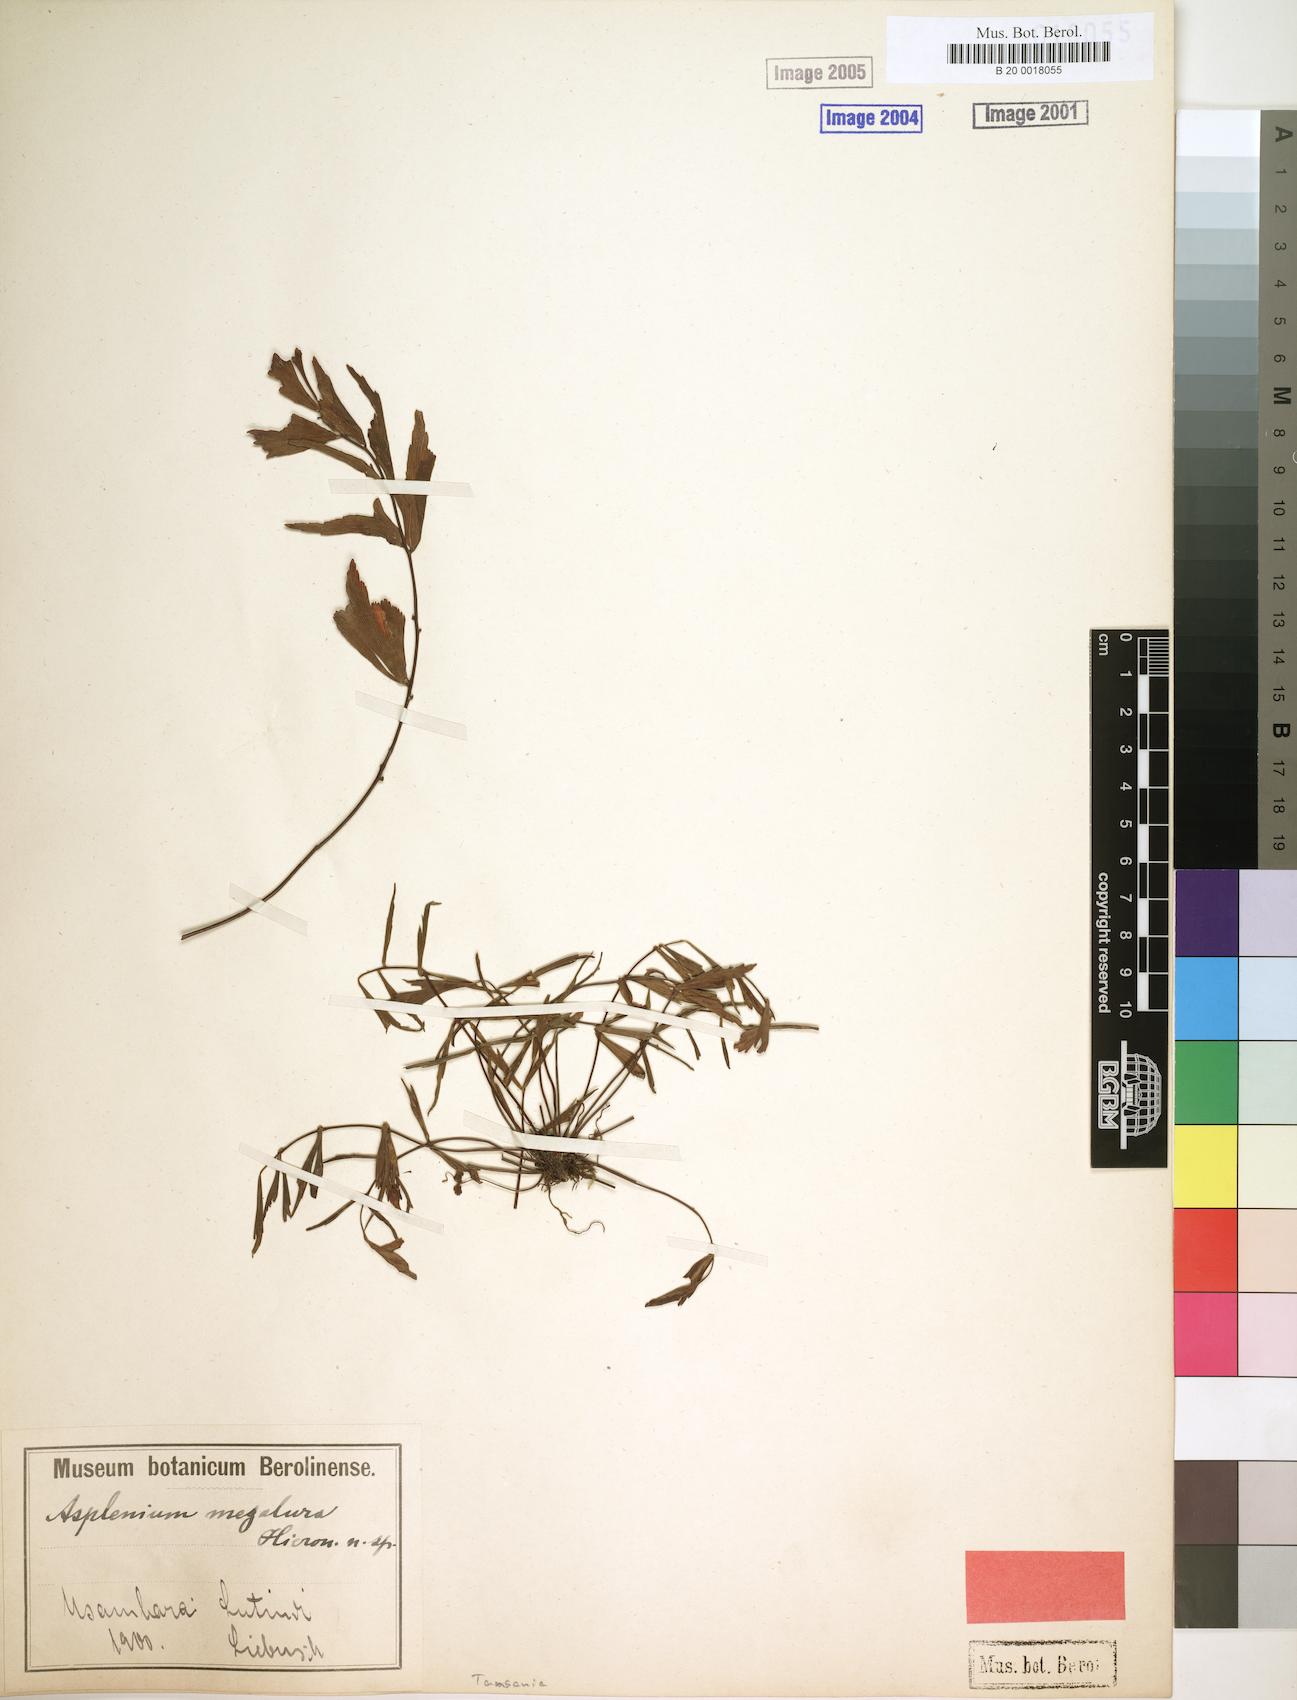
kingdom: Plantae
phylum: Tracheophyta
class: Polypodiopsida
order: Polypodiales
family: Aspleniaceae
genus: Asplenium
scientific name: Asplenium megalura
